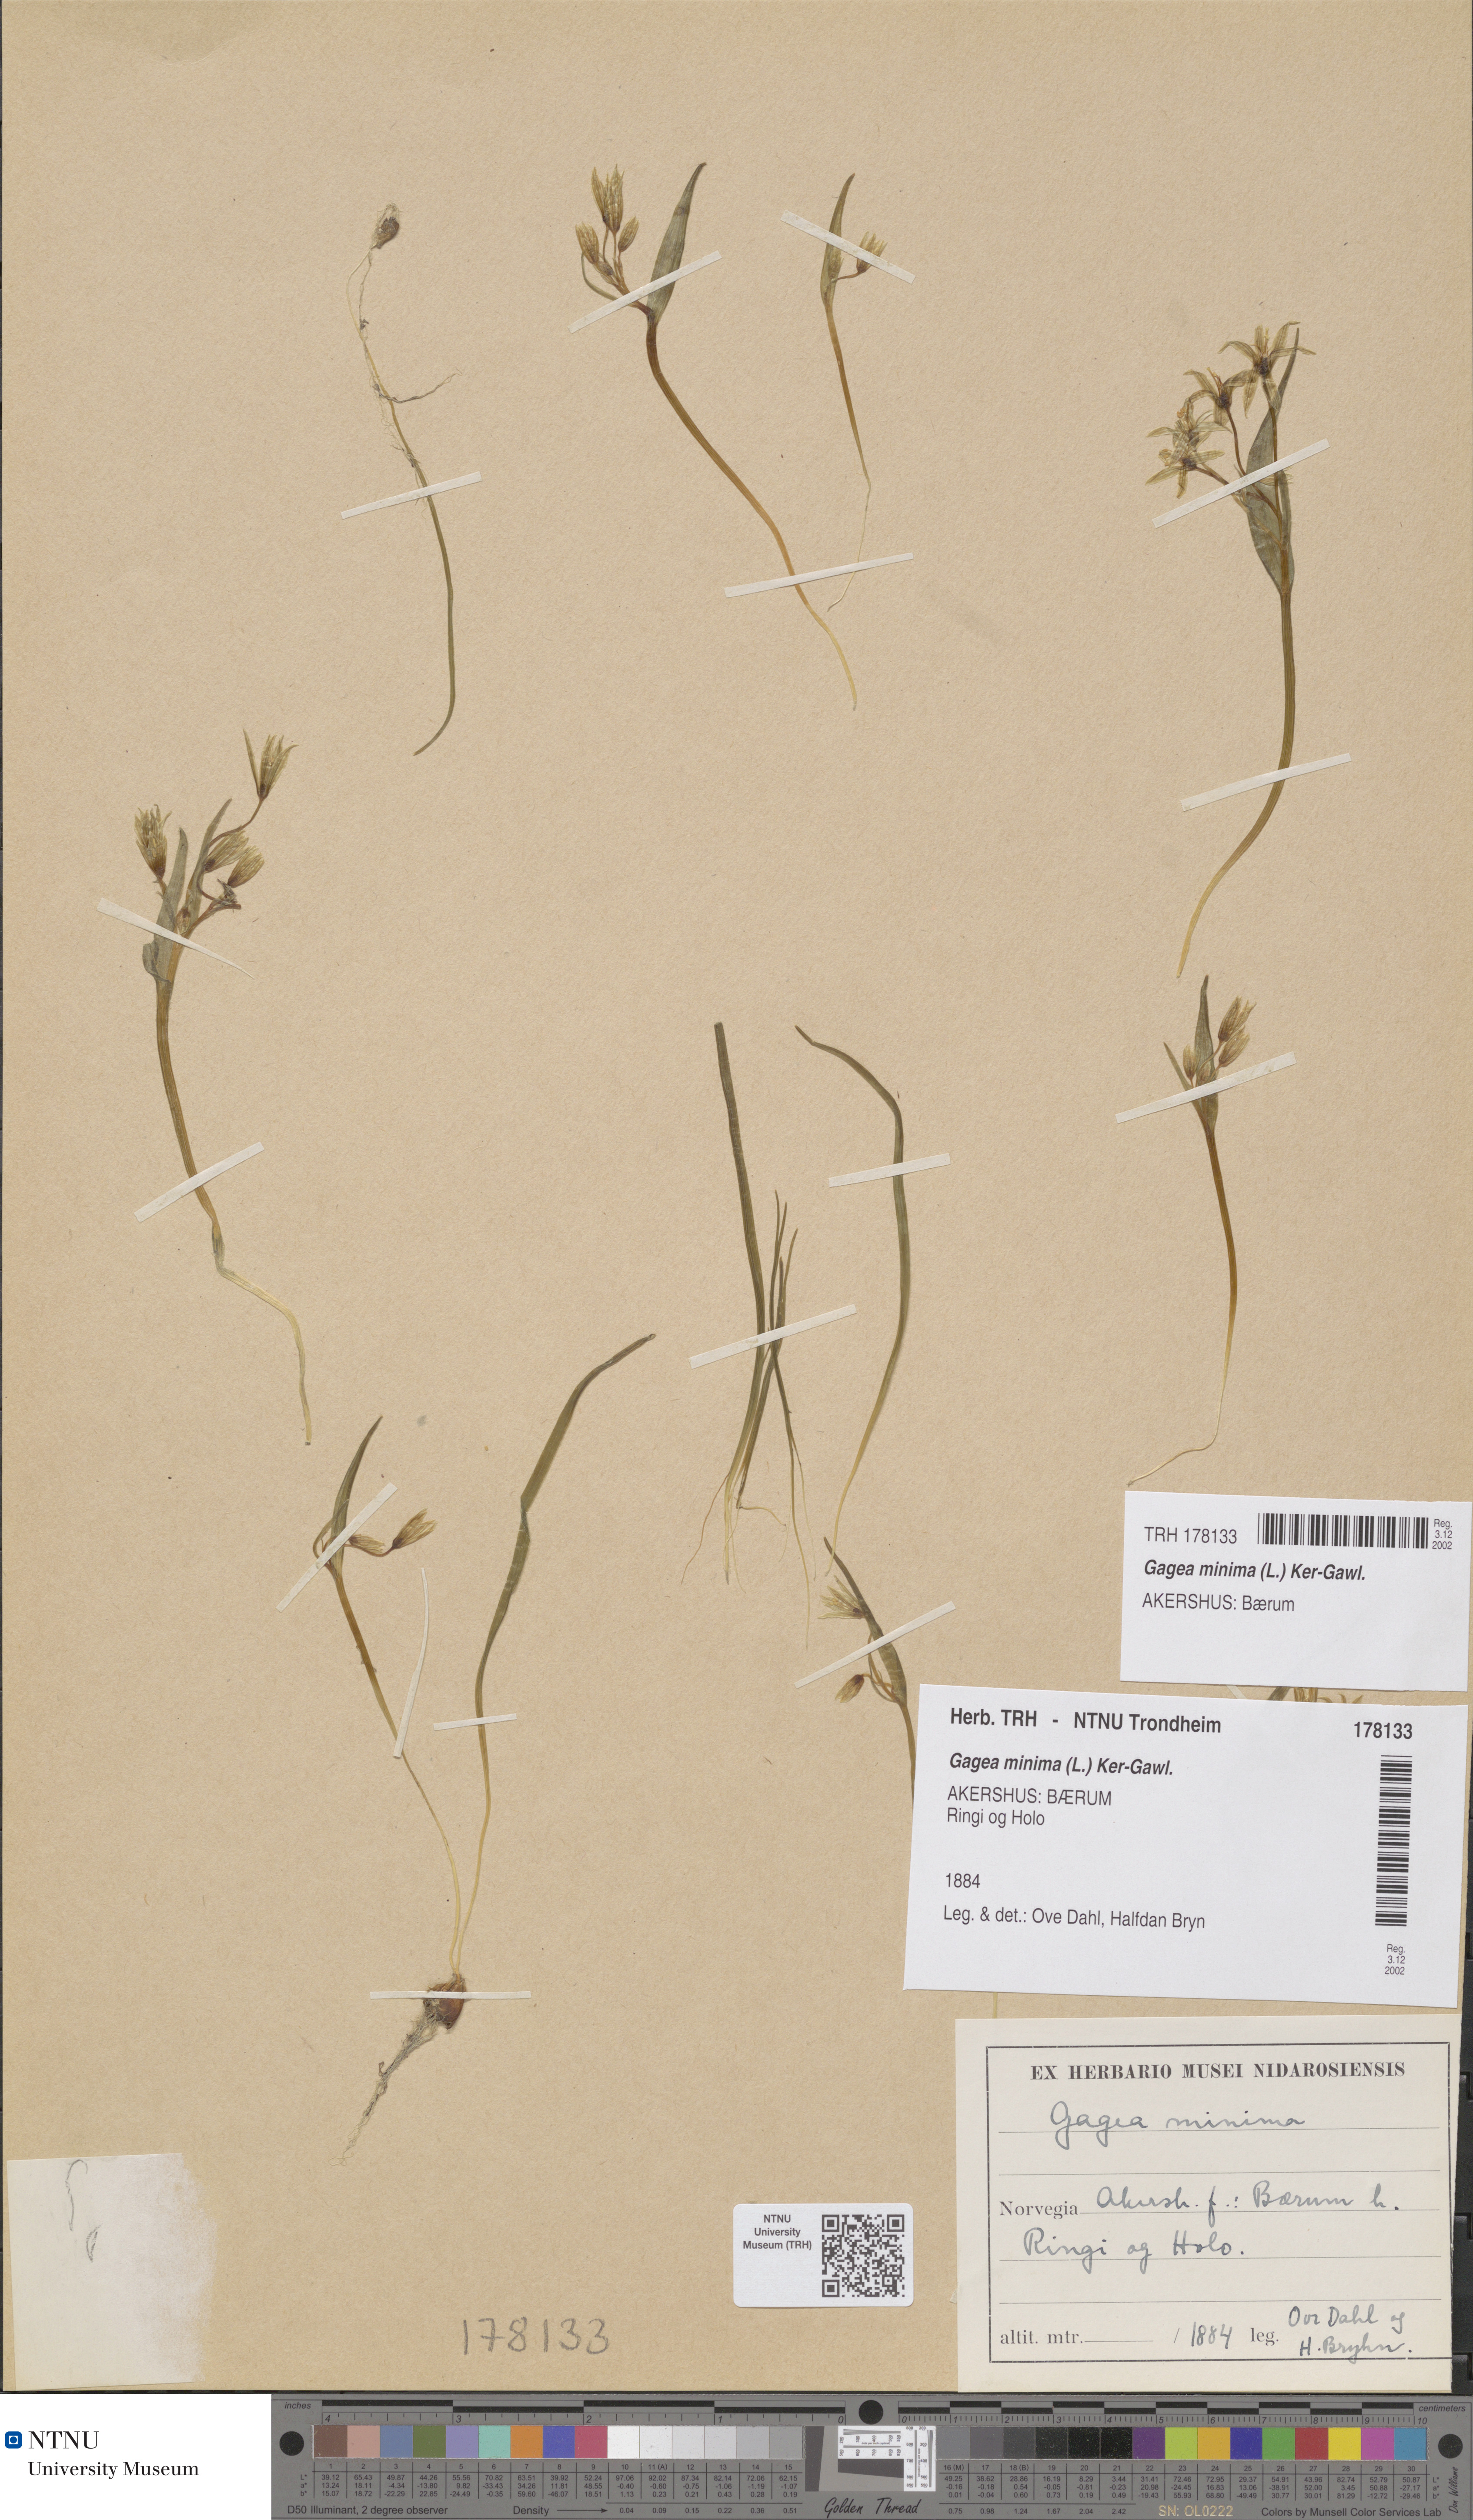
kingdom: Plantae
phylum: Tracheophyta
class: Liliopsida
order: Liliales
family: Liliaceae
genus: Gagea
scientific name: Gagea minima
